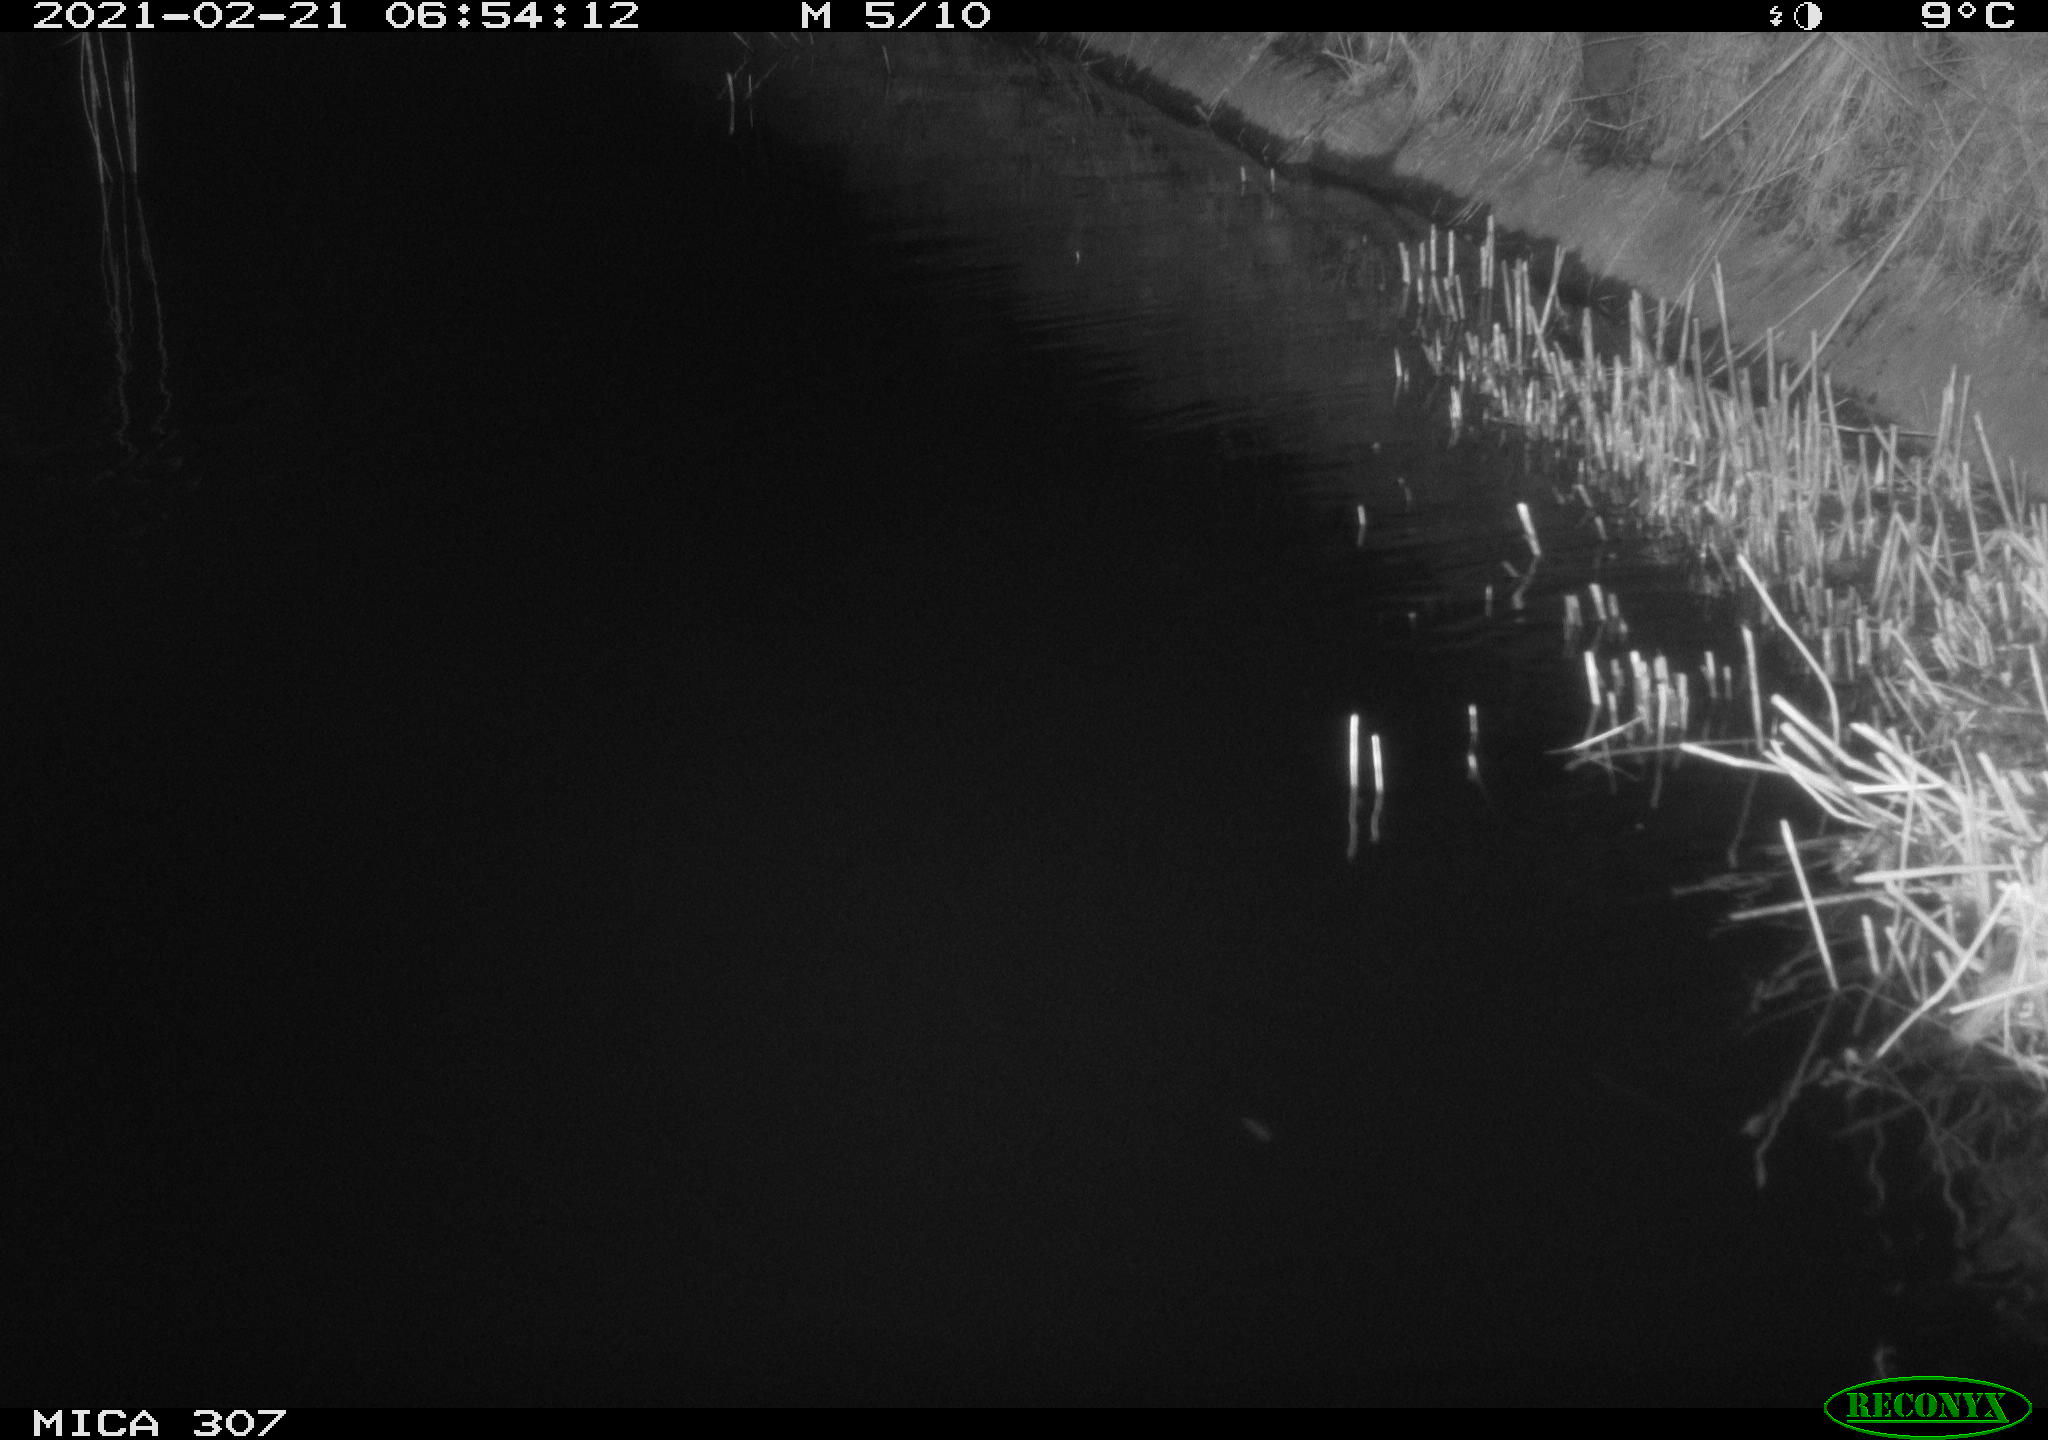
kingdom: Animalia
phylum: Chordata
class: Mammalia
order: Rodentia
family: Muridae
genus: Rattus
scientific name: Rattus norvegicus
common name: Brown rat
